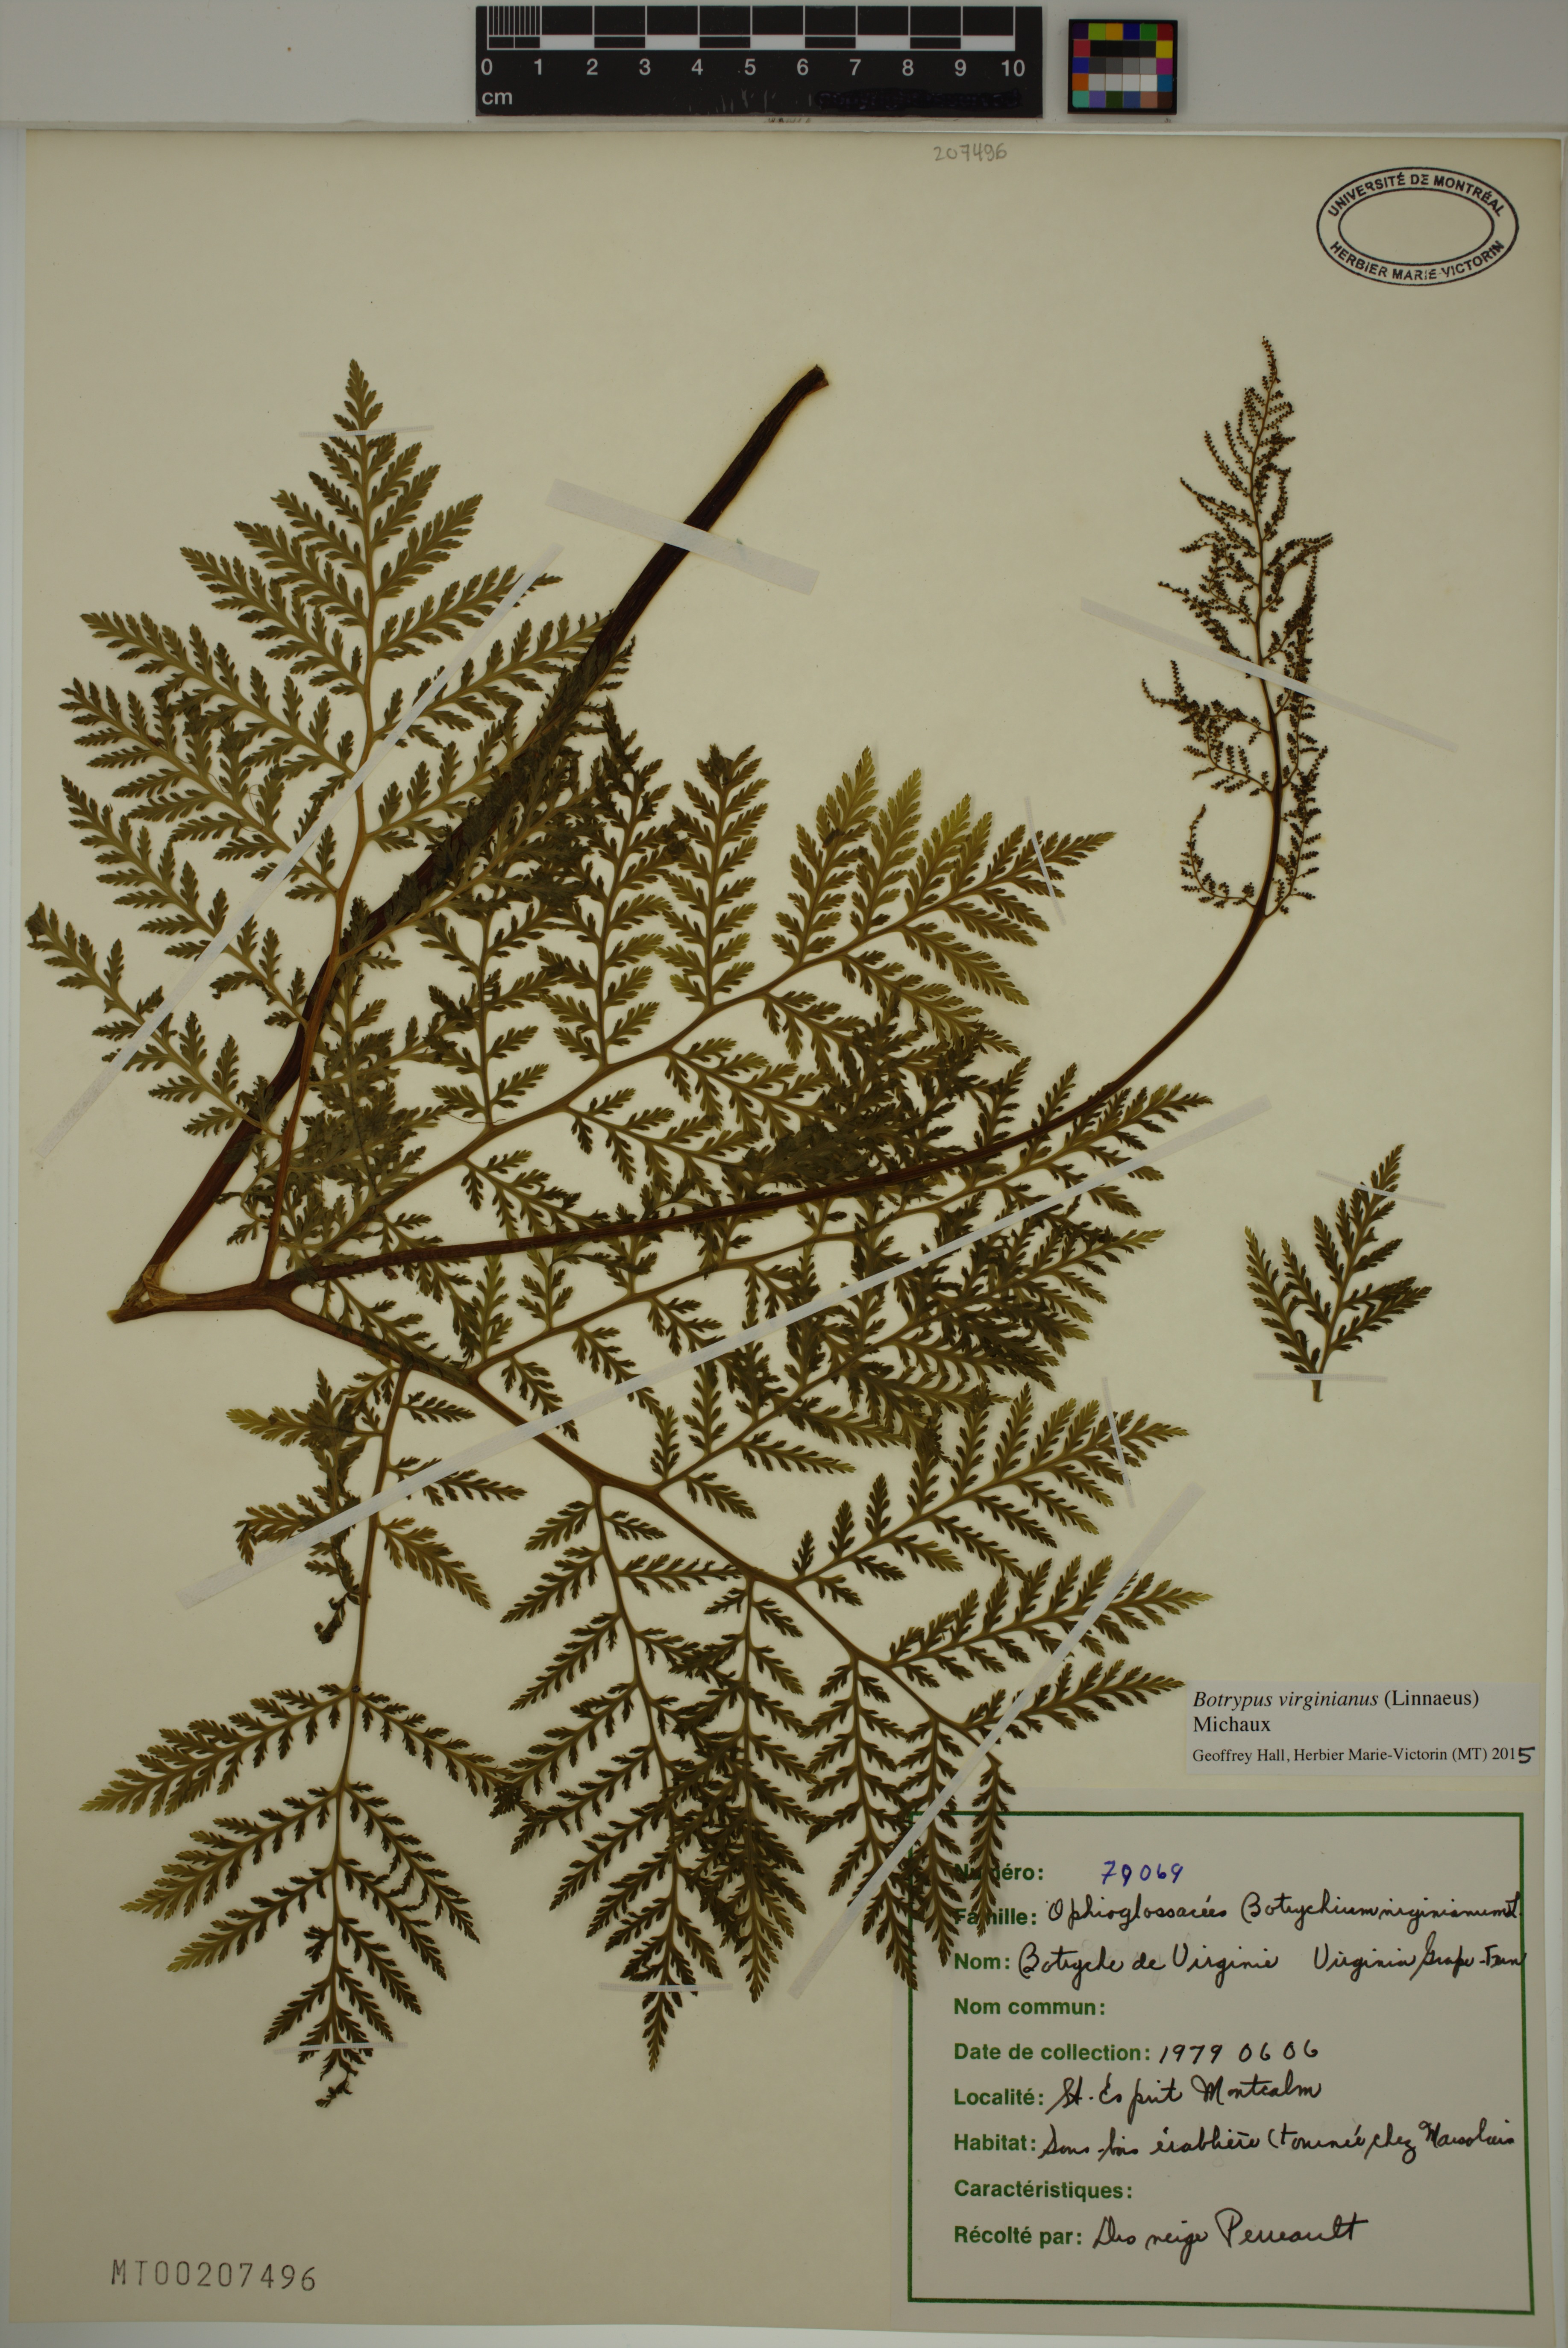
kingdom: Plantae
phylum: Tracheophyta
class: Polypodiopsida
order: Ophioglossales
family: Ophioglossaceae
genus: Botrypus
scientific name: Botrypus virginianus
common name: Common grapefern
